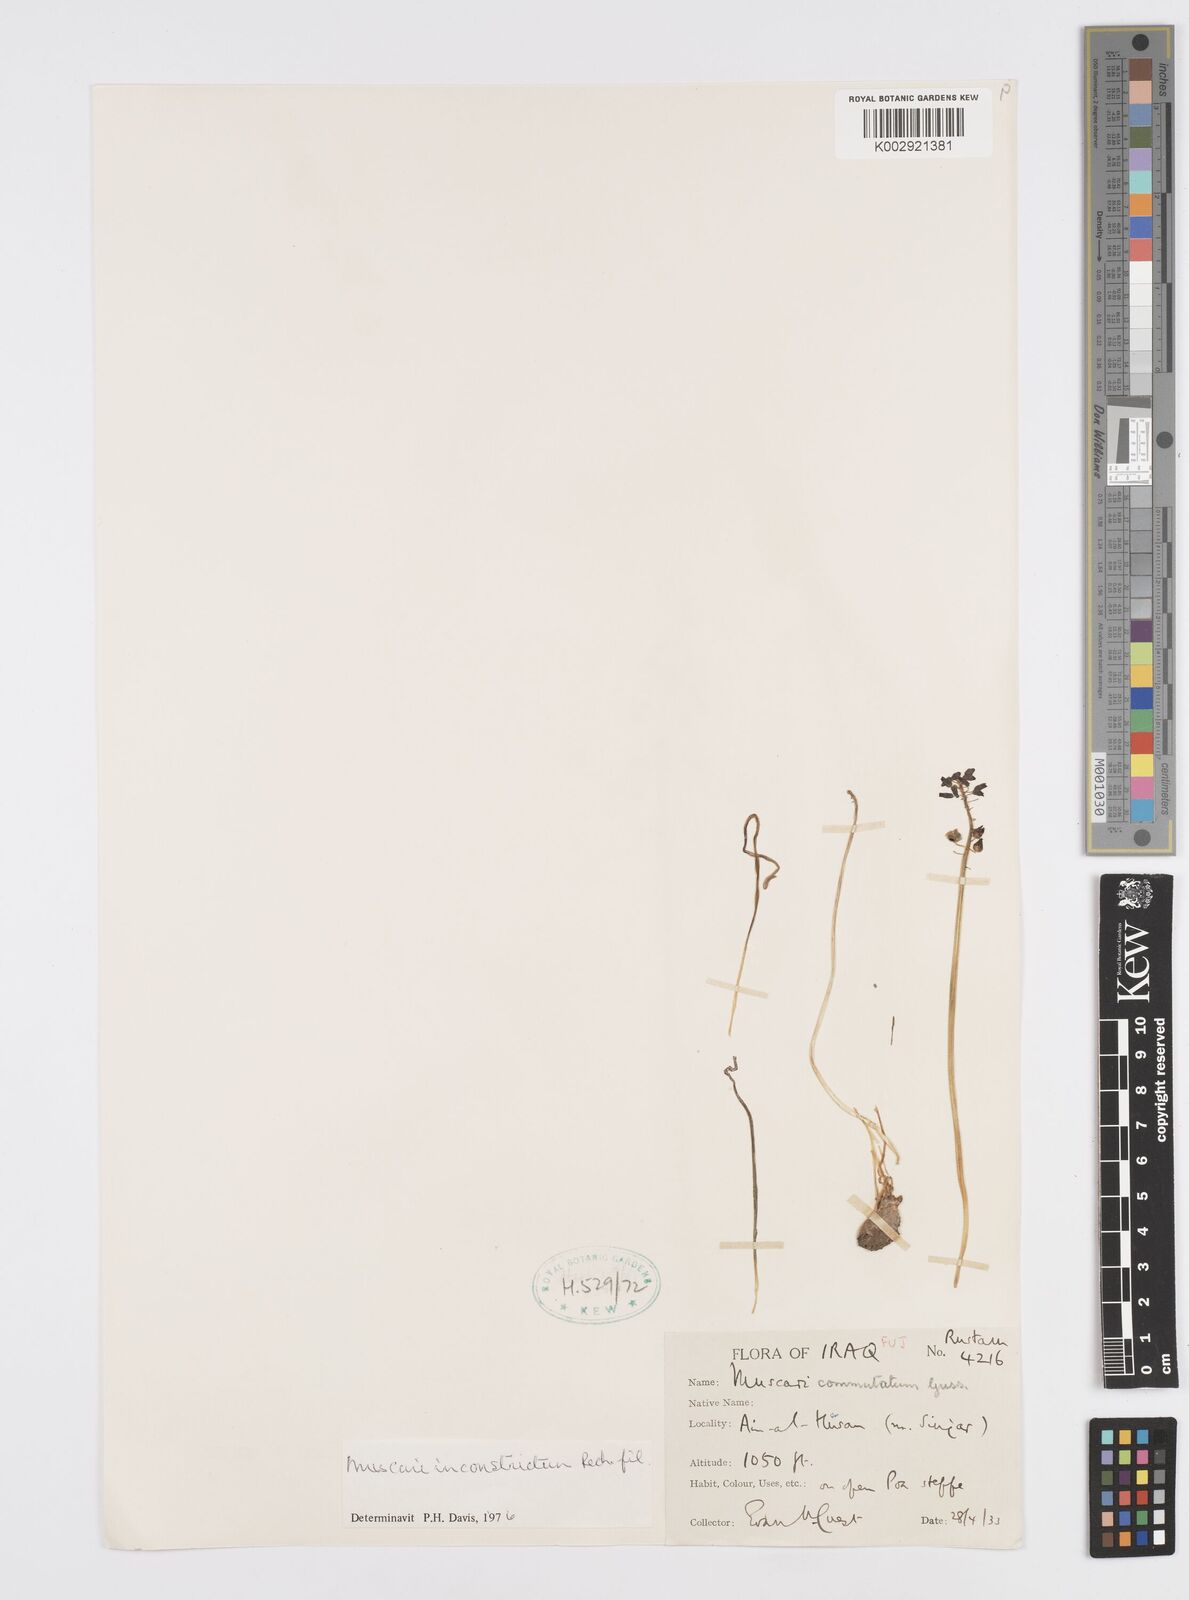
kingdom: Plantae
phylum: Tracheophyta
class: Liliopsida
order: Asparagales
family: Asparagaceae
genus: Muscari
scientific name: Muscari inconstrictum
